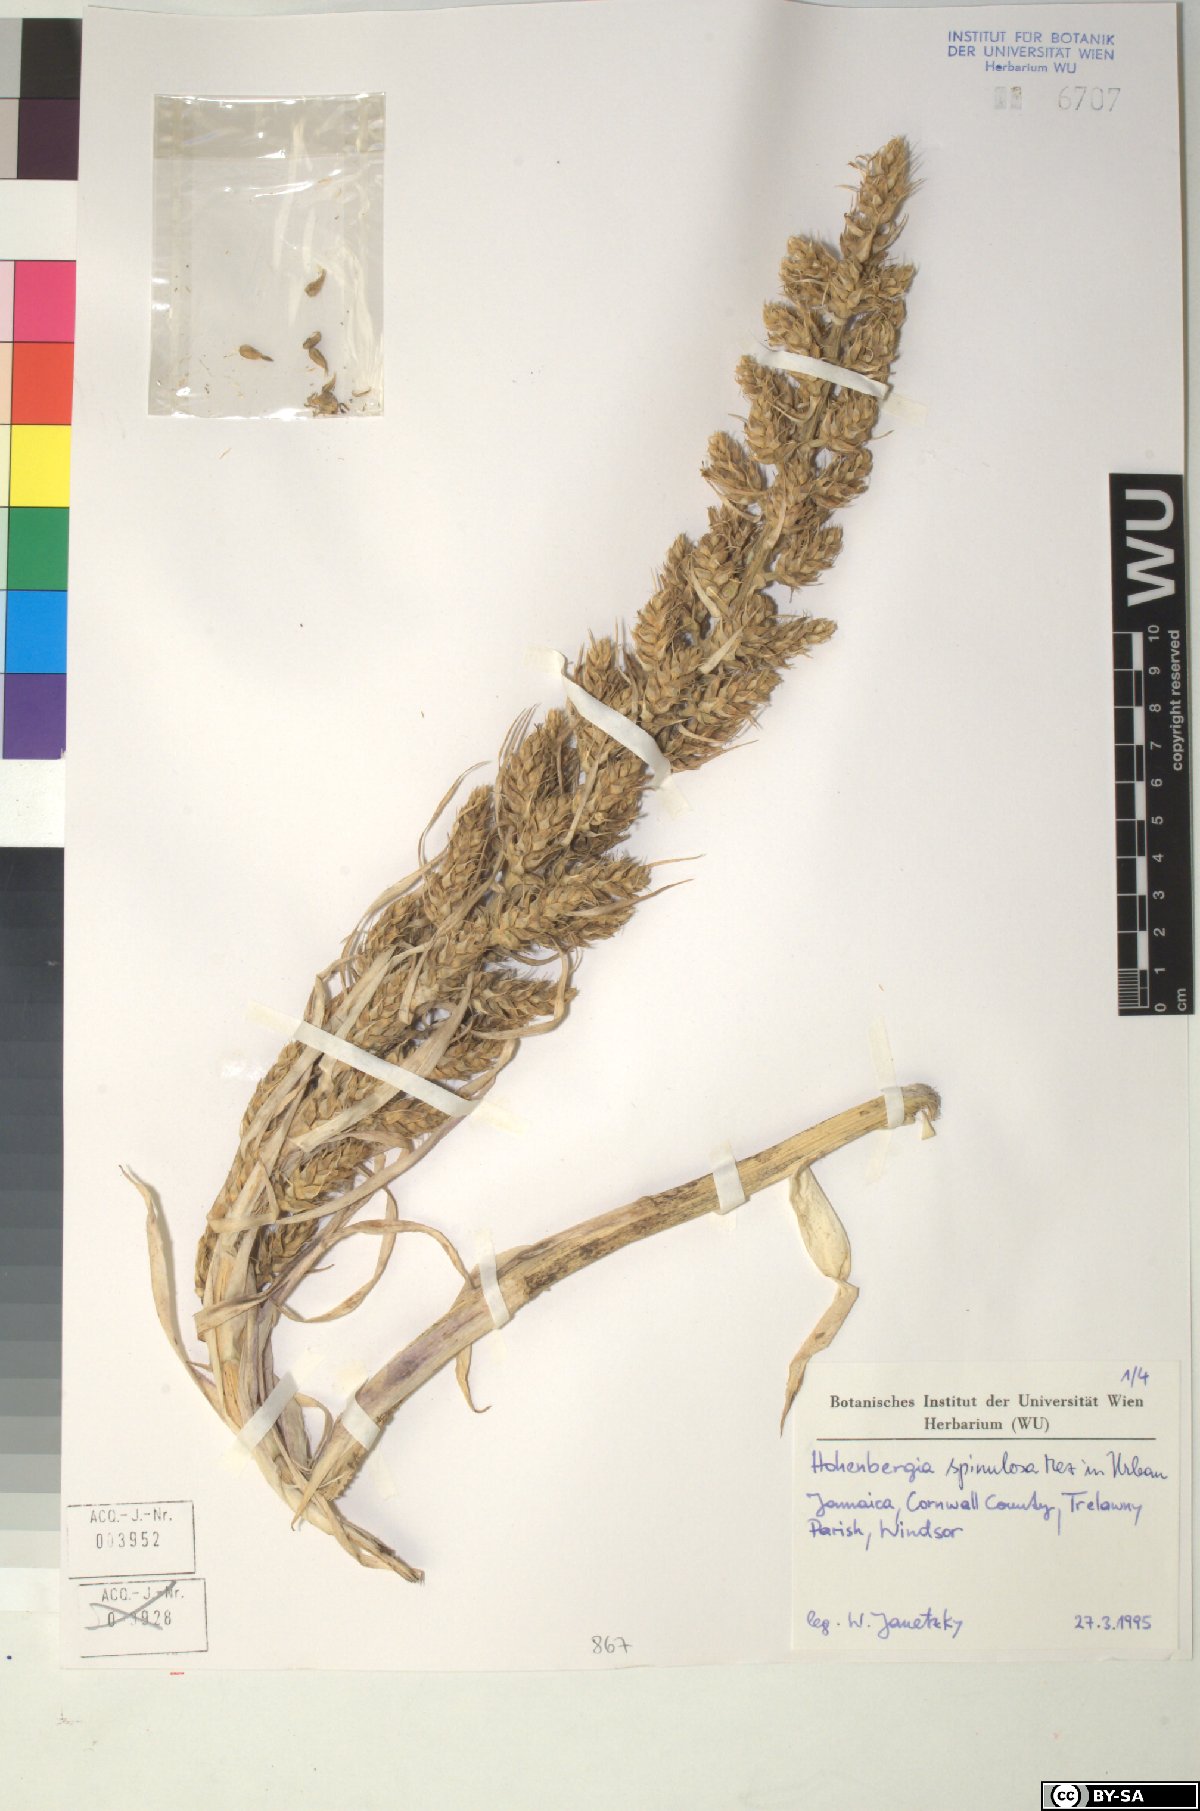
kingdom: Plantae
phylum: Tracheophyta
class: Liliopsida
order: Poales
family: Bromeliaceae
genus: Wittmackia
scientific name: Wittmackia spinulosa
